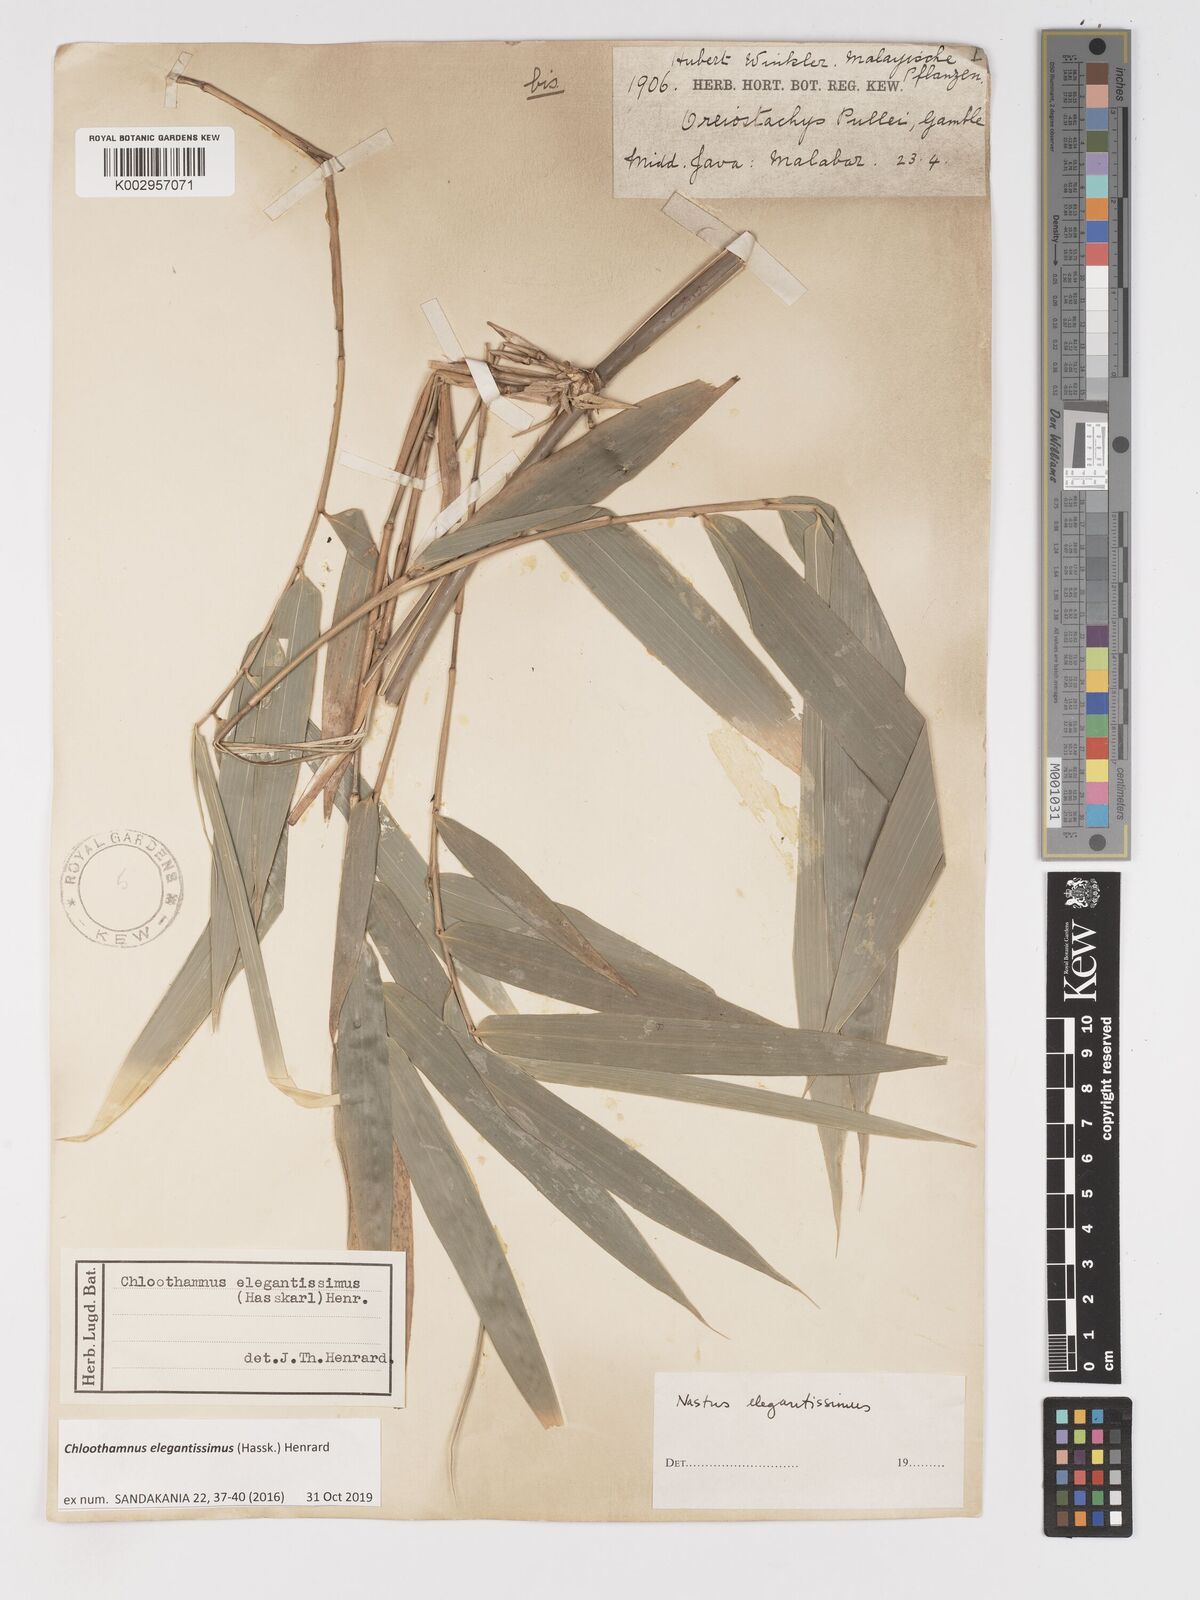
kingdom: Plantae
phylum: Tracheophyta
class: Liliopsida
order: Poales
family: Poaceae
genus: Chloothamnus
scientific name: Chloothamnus elegantissimus
